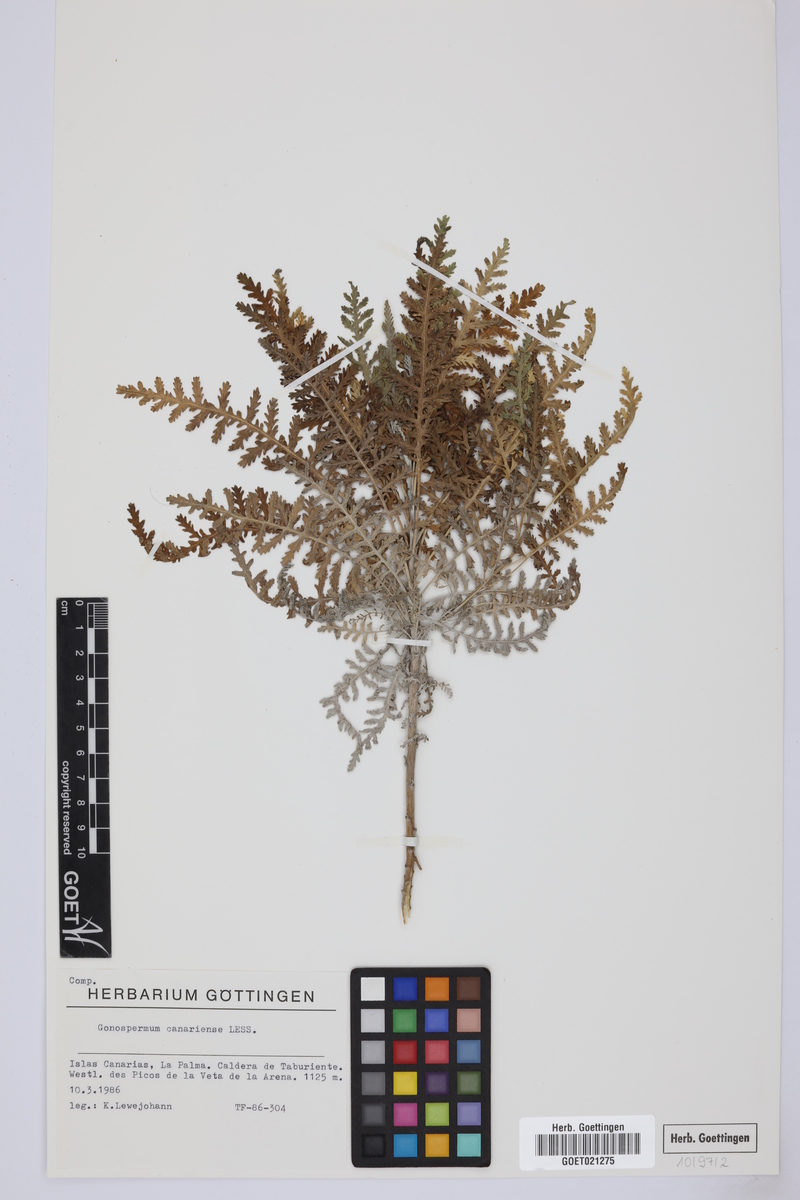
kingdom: Plantae
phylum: Tracheophyta
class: Magnoliopsida
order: Asterales
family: Asteraceae
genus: Gonospermum
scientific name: Gonospermum canariense
